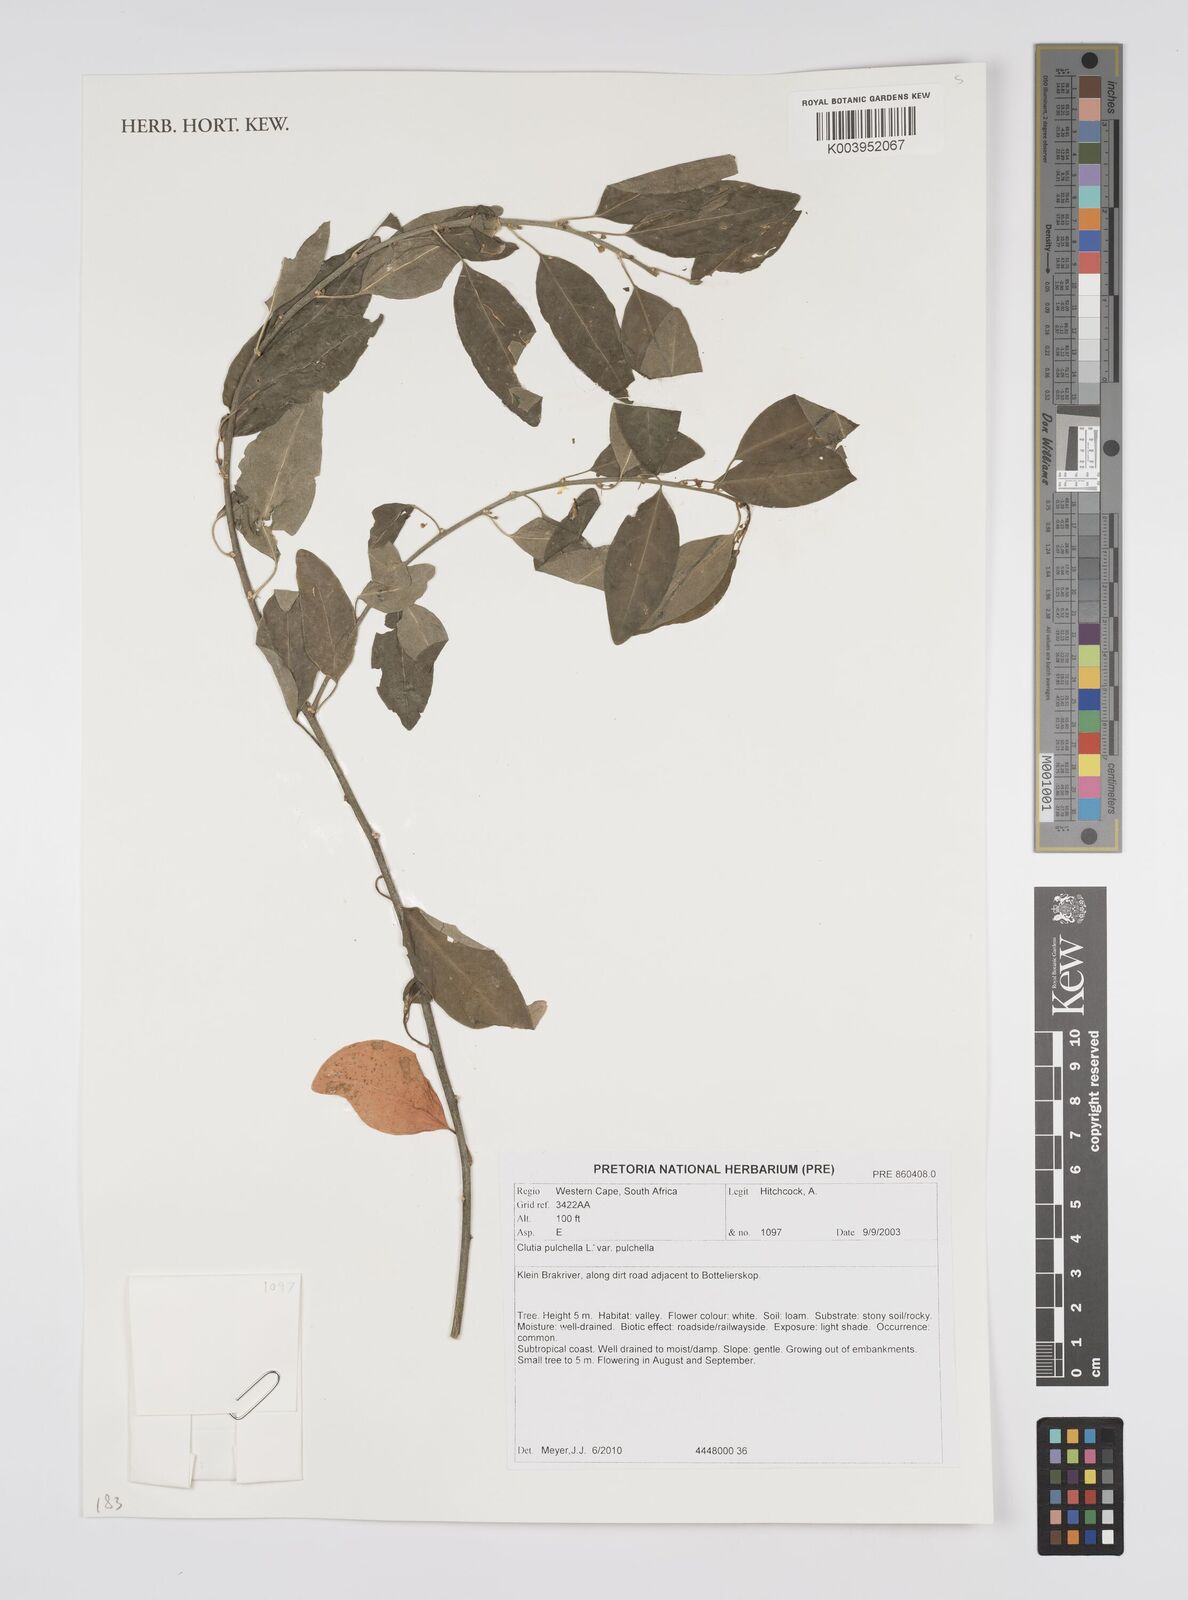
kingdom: Plantae
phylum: Tracheophyta
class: Magnoliopsida
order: Malpighiales
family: Peraceae
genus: Clutia
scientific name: Clutia pulchella
